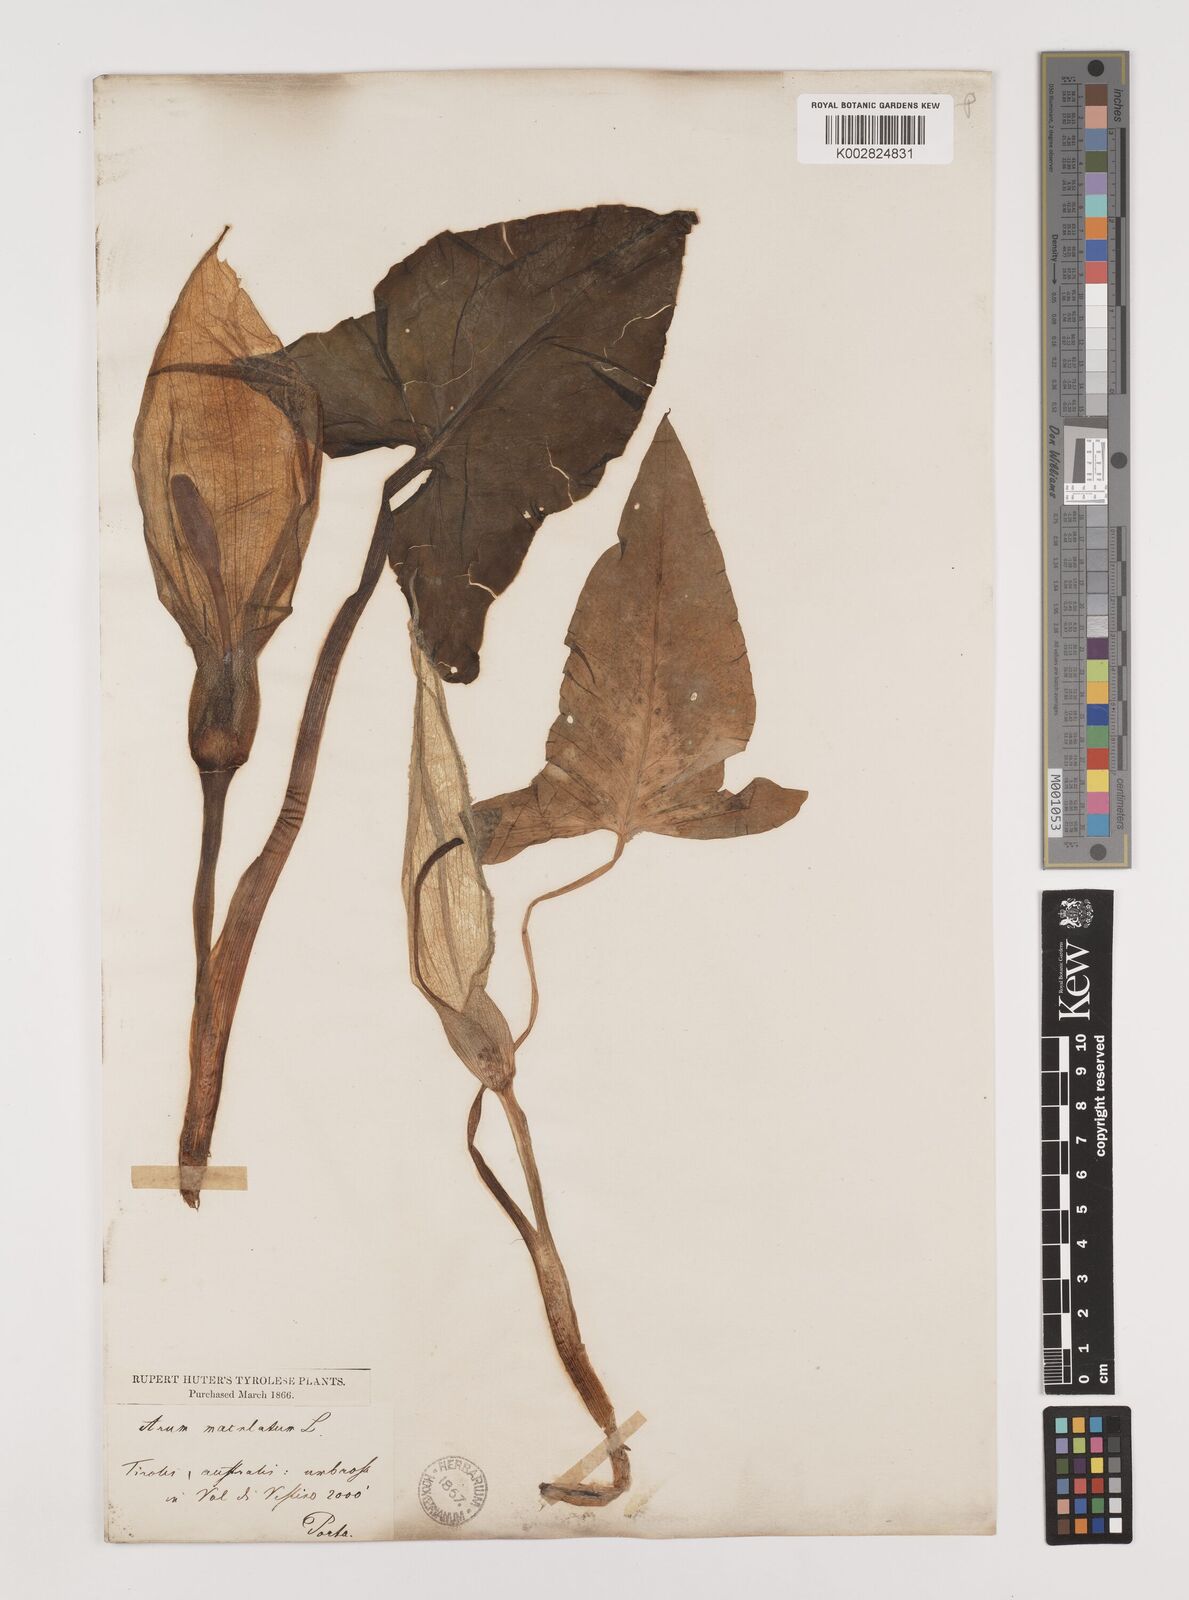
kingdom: Plantae
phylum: Tracheophyta
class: Liliopsida
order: Alismatales
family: Araceae
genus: Arum
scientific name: Arum maculatum
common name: Lords-and-ladies
